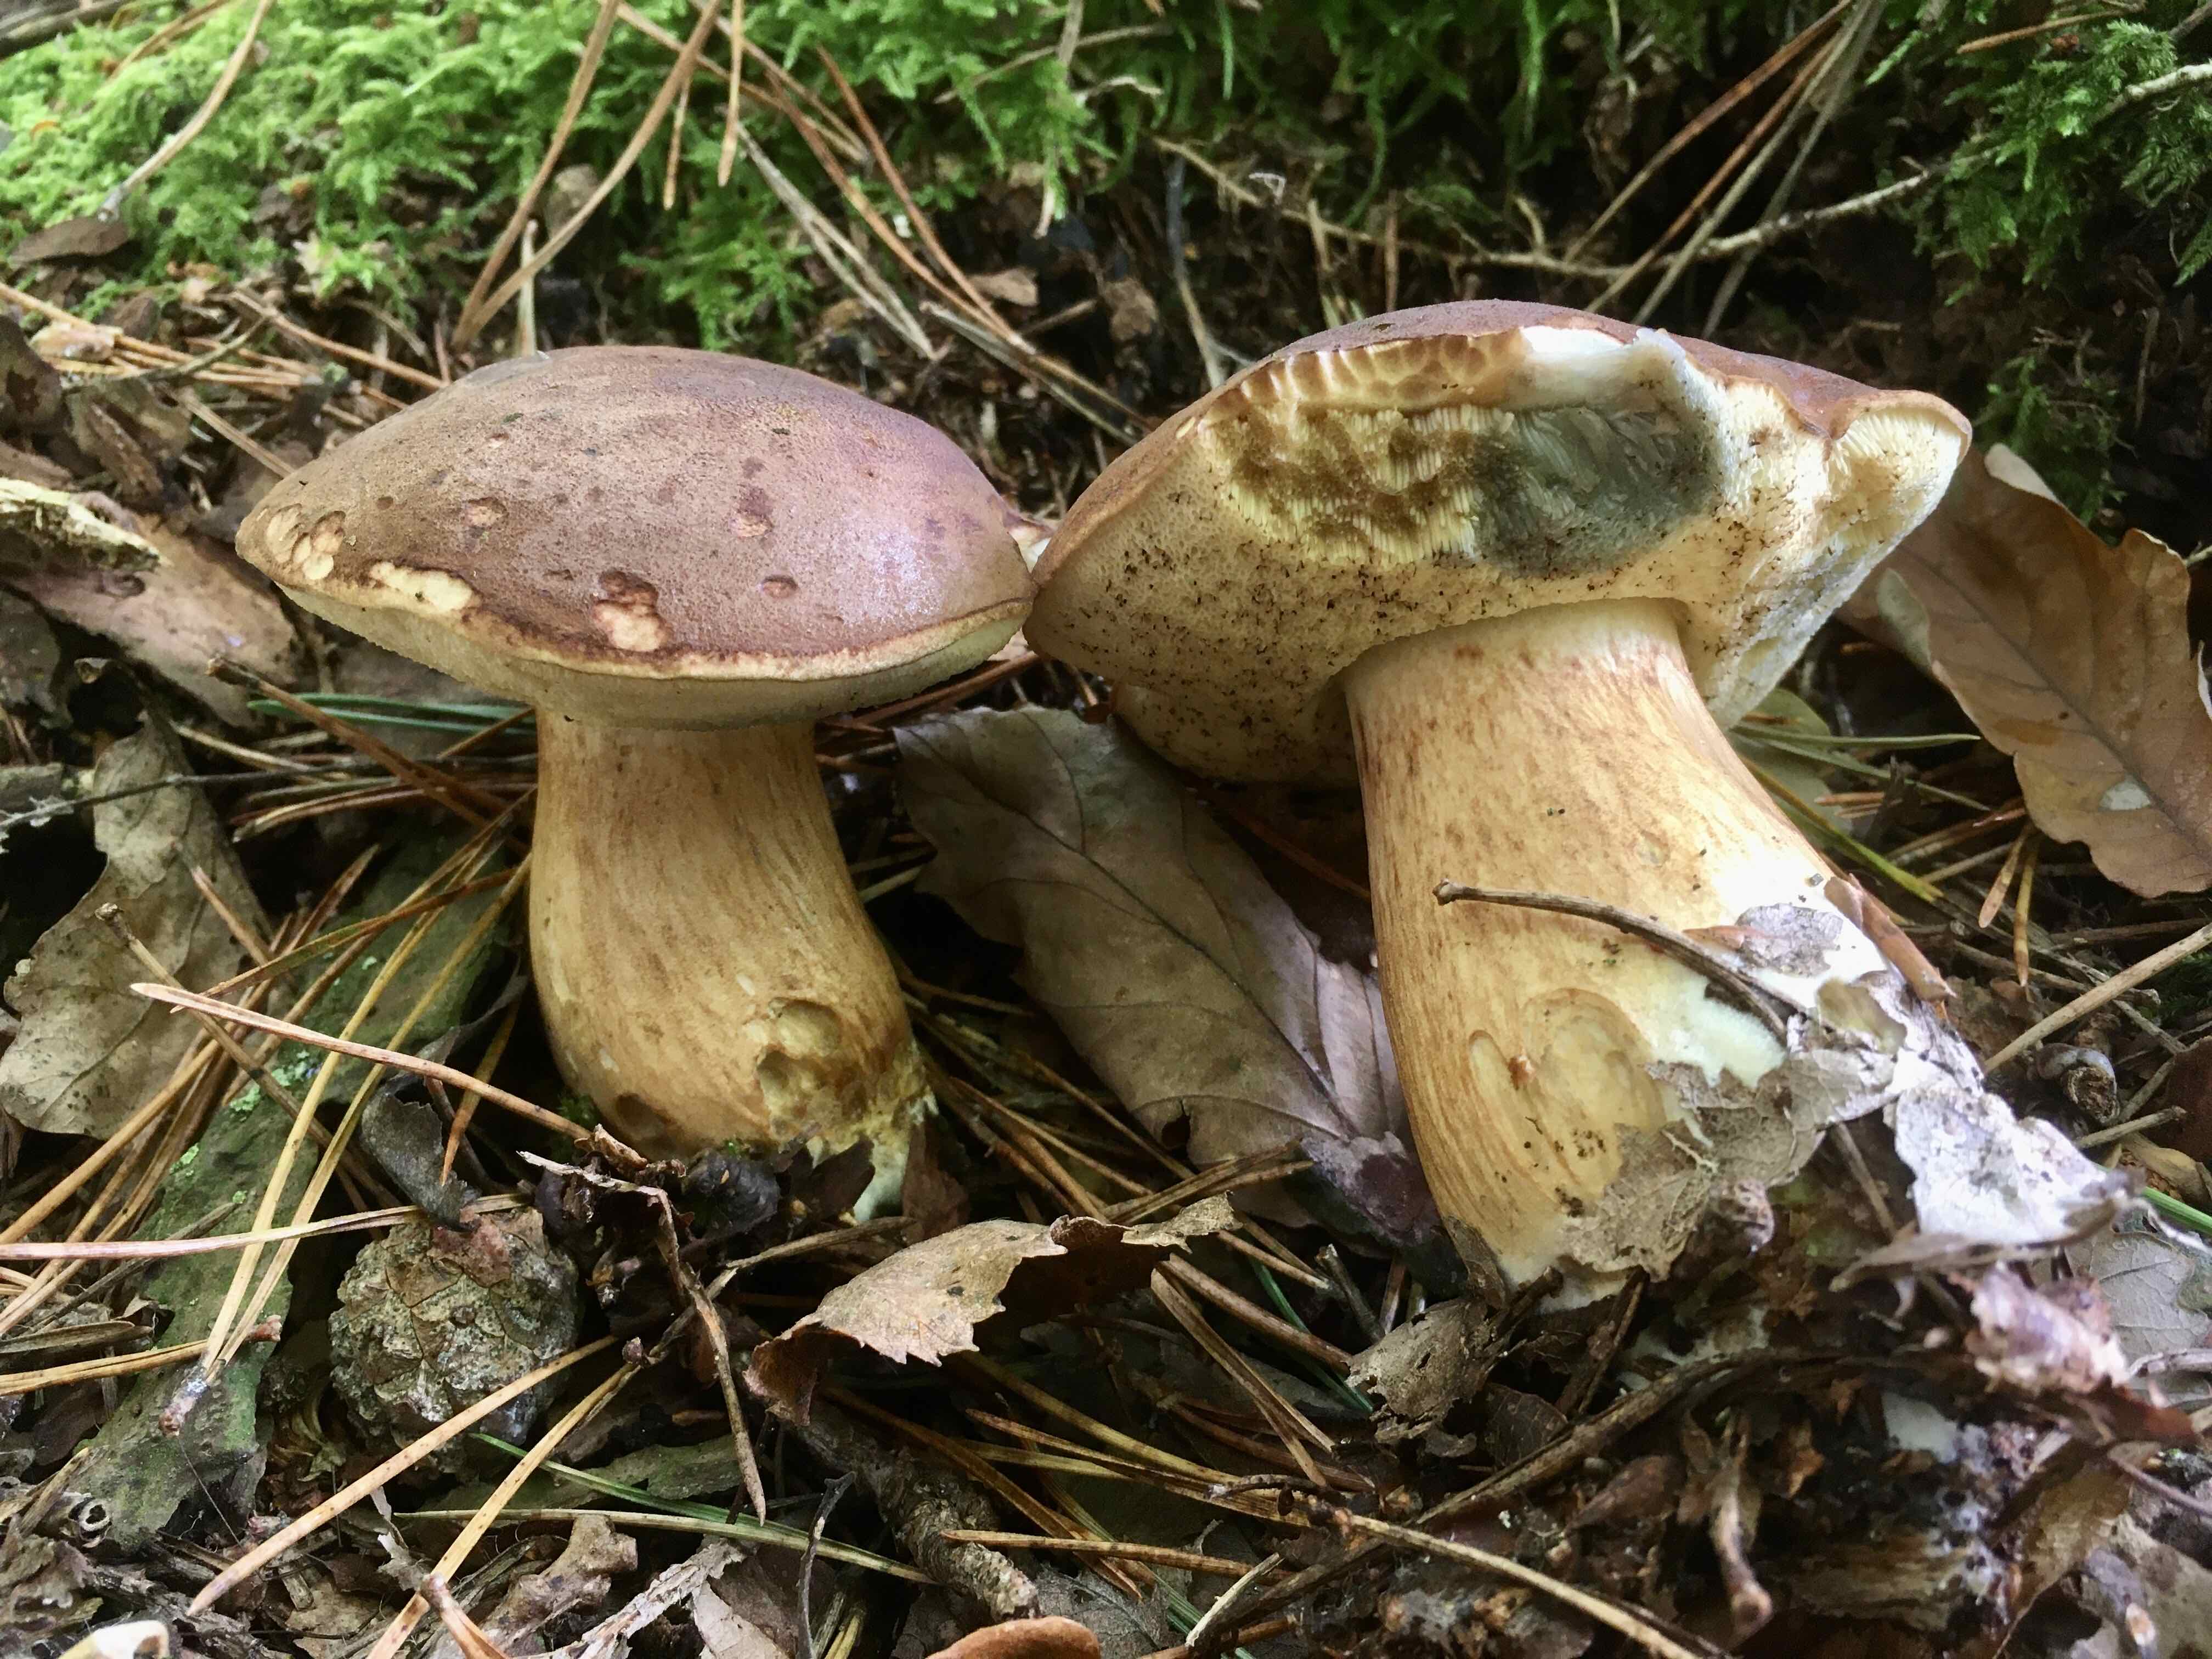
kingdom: Fungi
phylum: Basidiomycota
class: Agaricomycetes
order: Boletales
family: Boletaceae
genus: Imleria
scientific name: Imleria badia
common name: brunstokket rørhat
